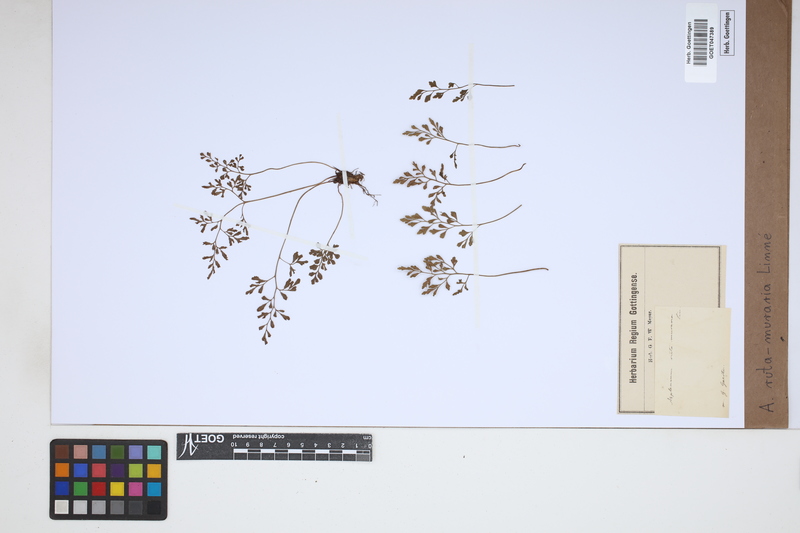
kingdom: Plantae
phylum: Tracheophyta
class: Polypodiopsida
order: Polypodiales
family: Aspleniaceae
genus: Asplenium
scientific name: Asplenium ruta-muraria
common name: Wall-rue
